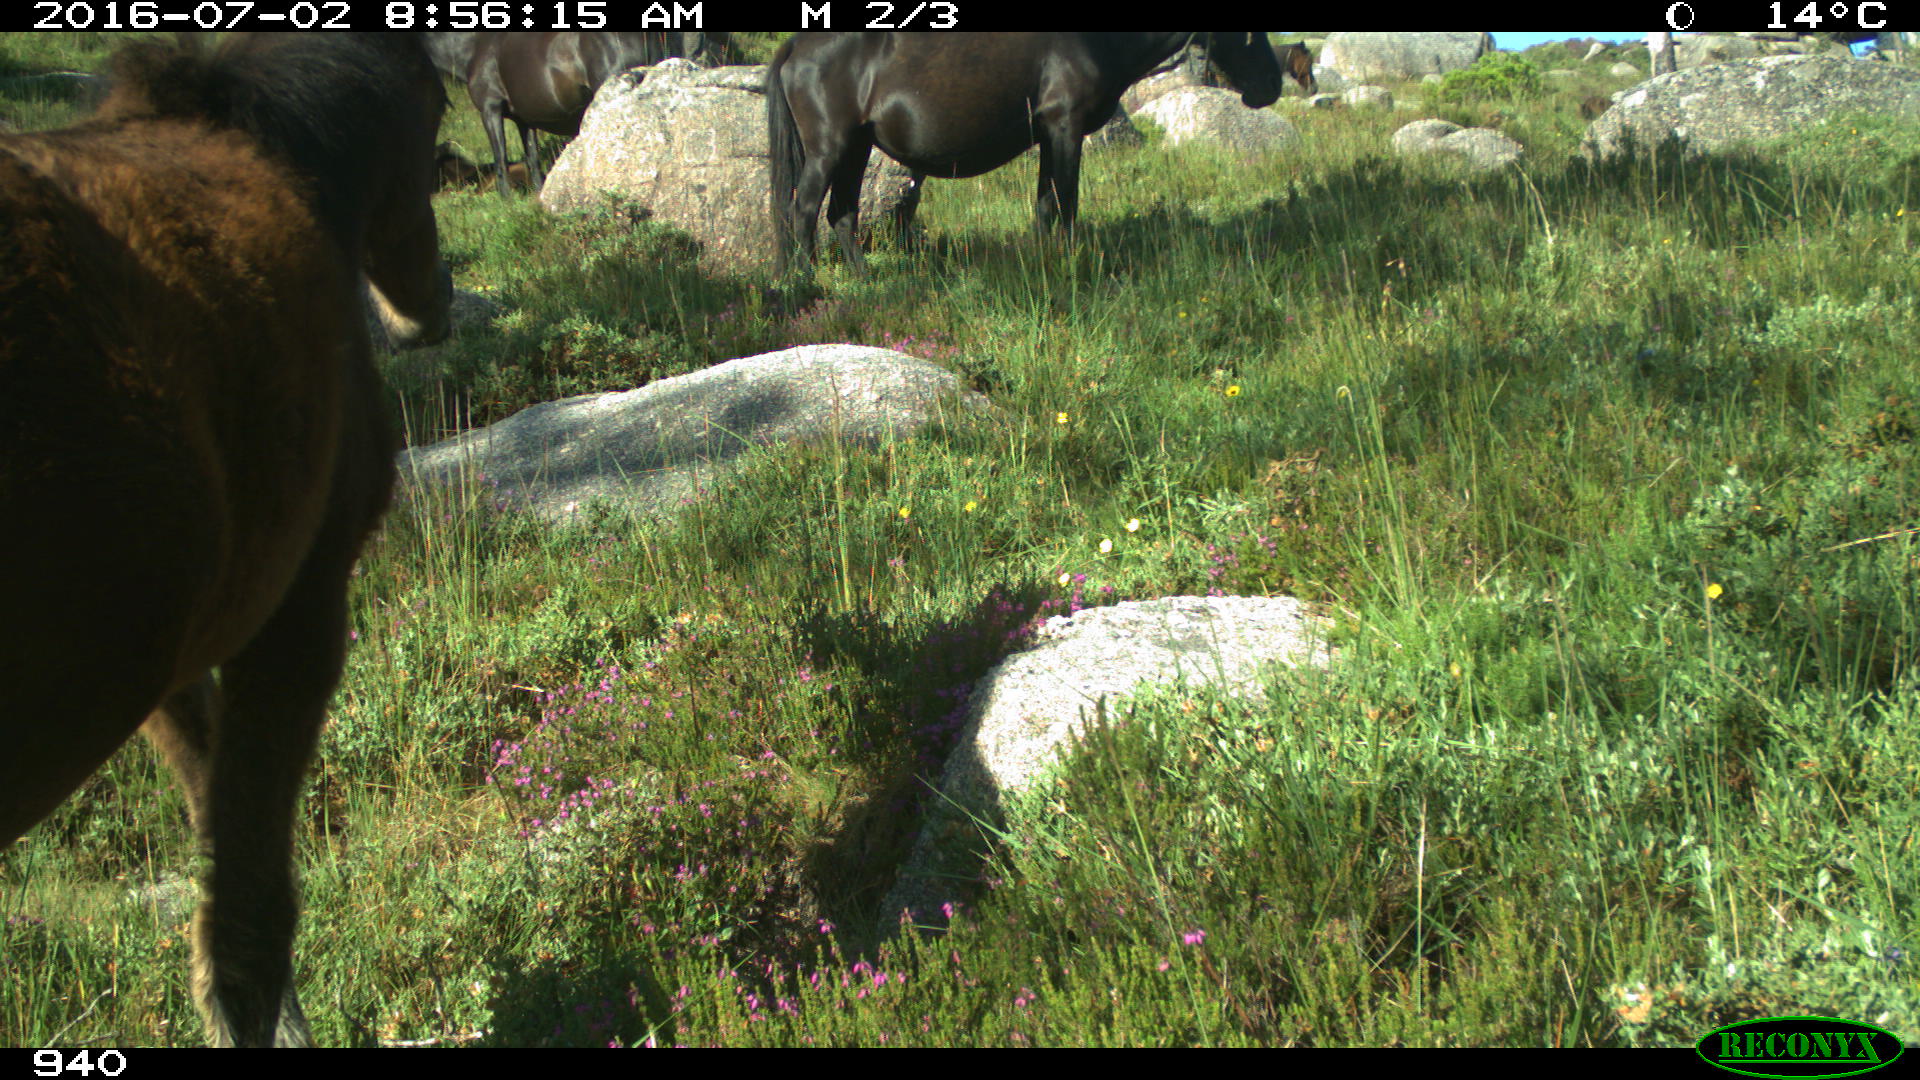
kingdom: Animalia
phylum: Chordata
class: Mammalia
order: Perissodactyla
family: Equidae
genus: Equus
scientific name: Equus caballus
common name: Horse
